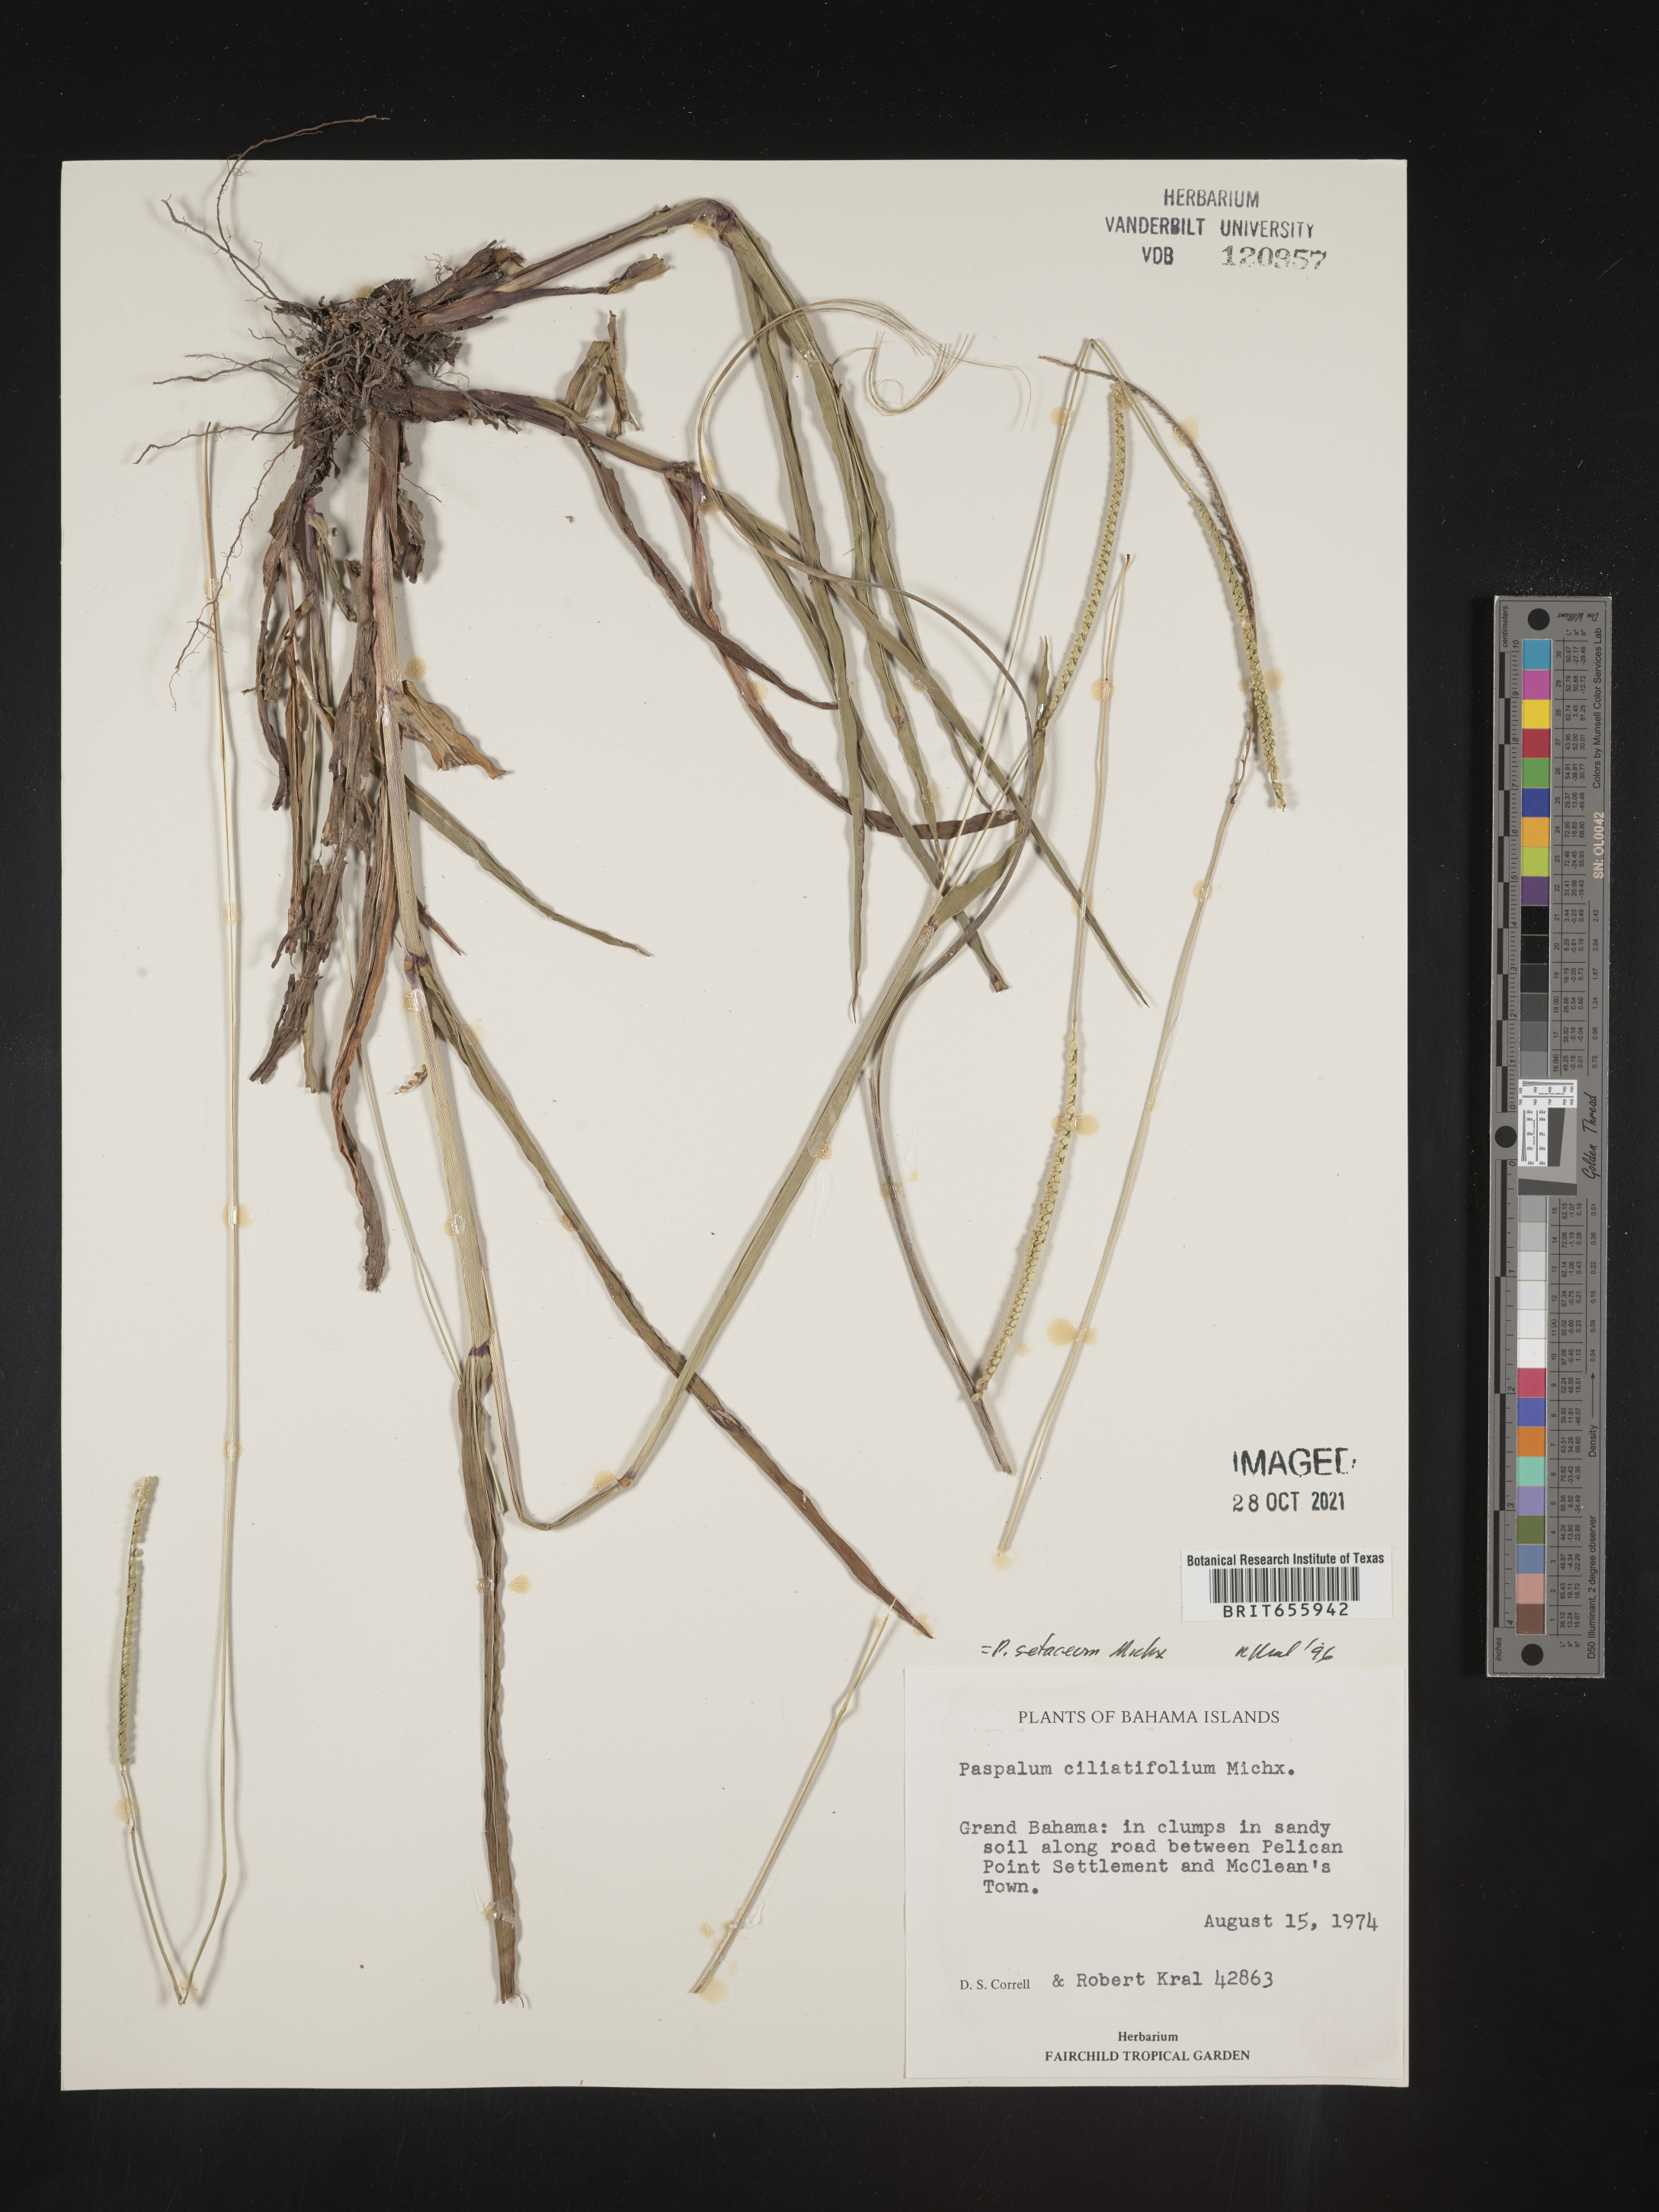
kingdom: Plantae
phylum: Tracheophyta
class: Liliopsida
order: Poales
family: Poaceae
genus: Paspalum
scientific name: Paspalum
